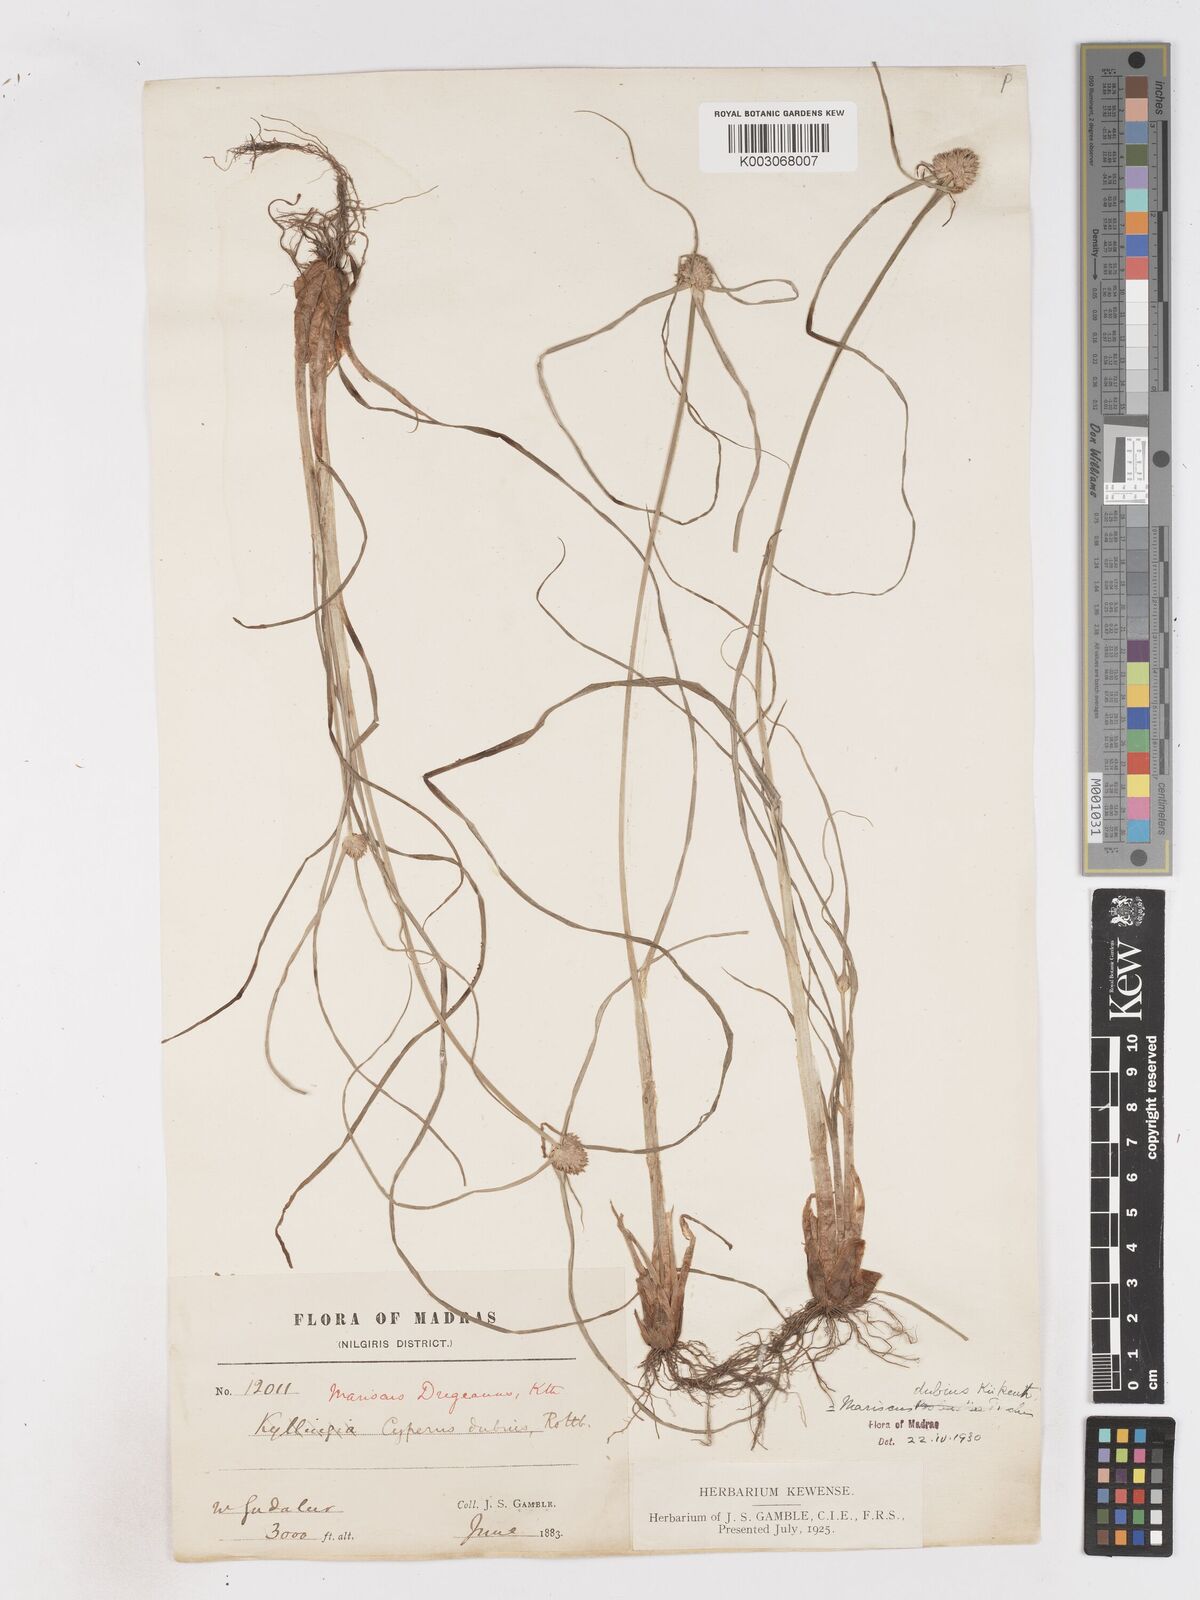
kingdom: Plantae
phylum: Tracheophyta
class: Liliopsida
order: Poales
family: Cyperaceae
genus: Cyperus
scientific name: Cyperus dubius
